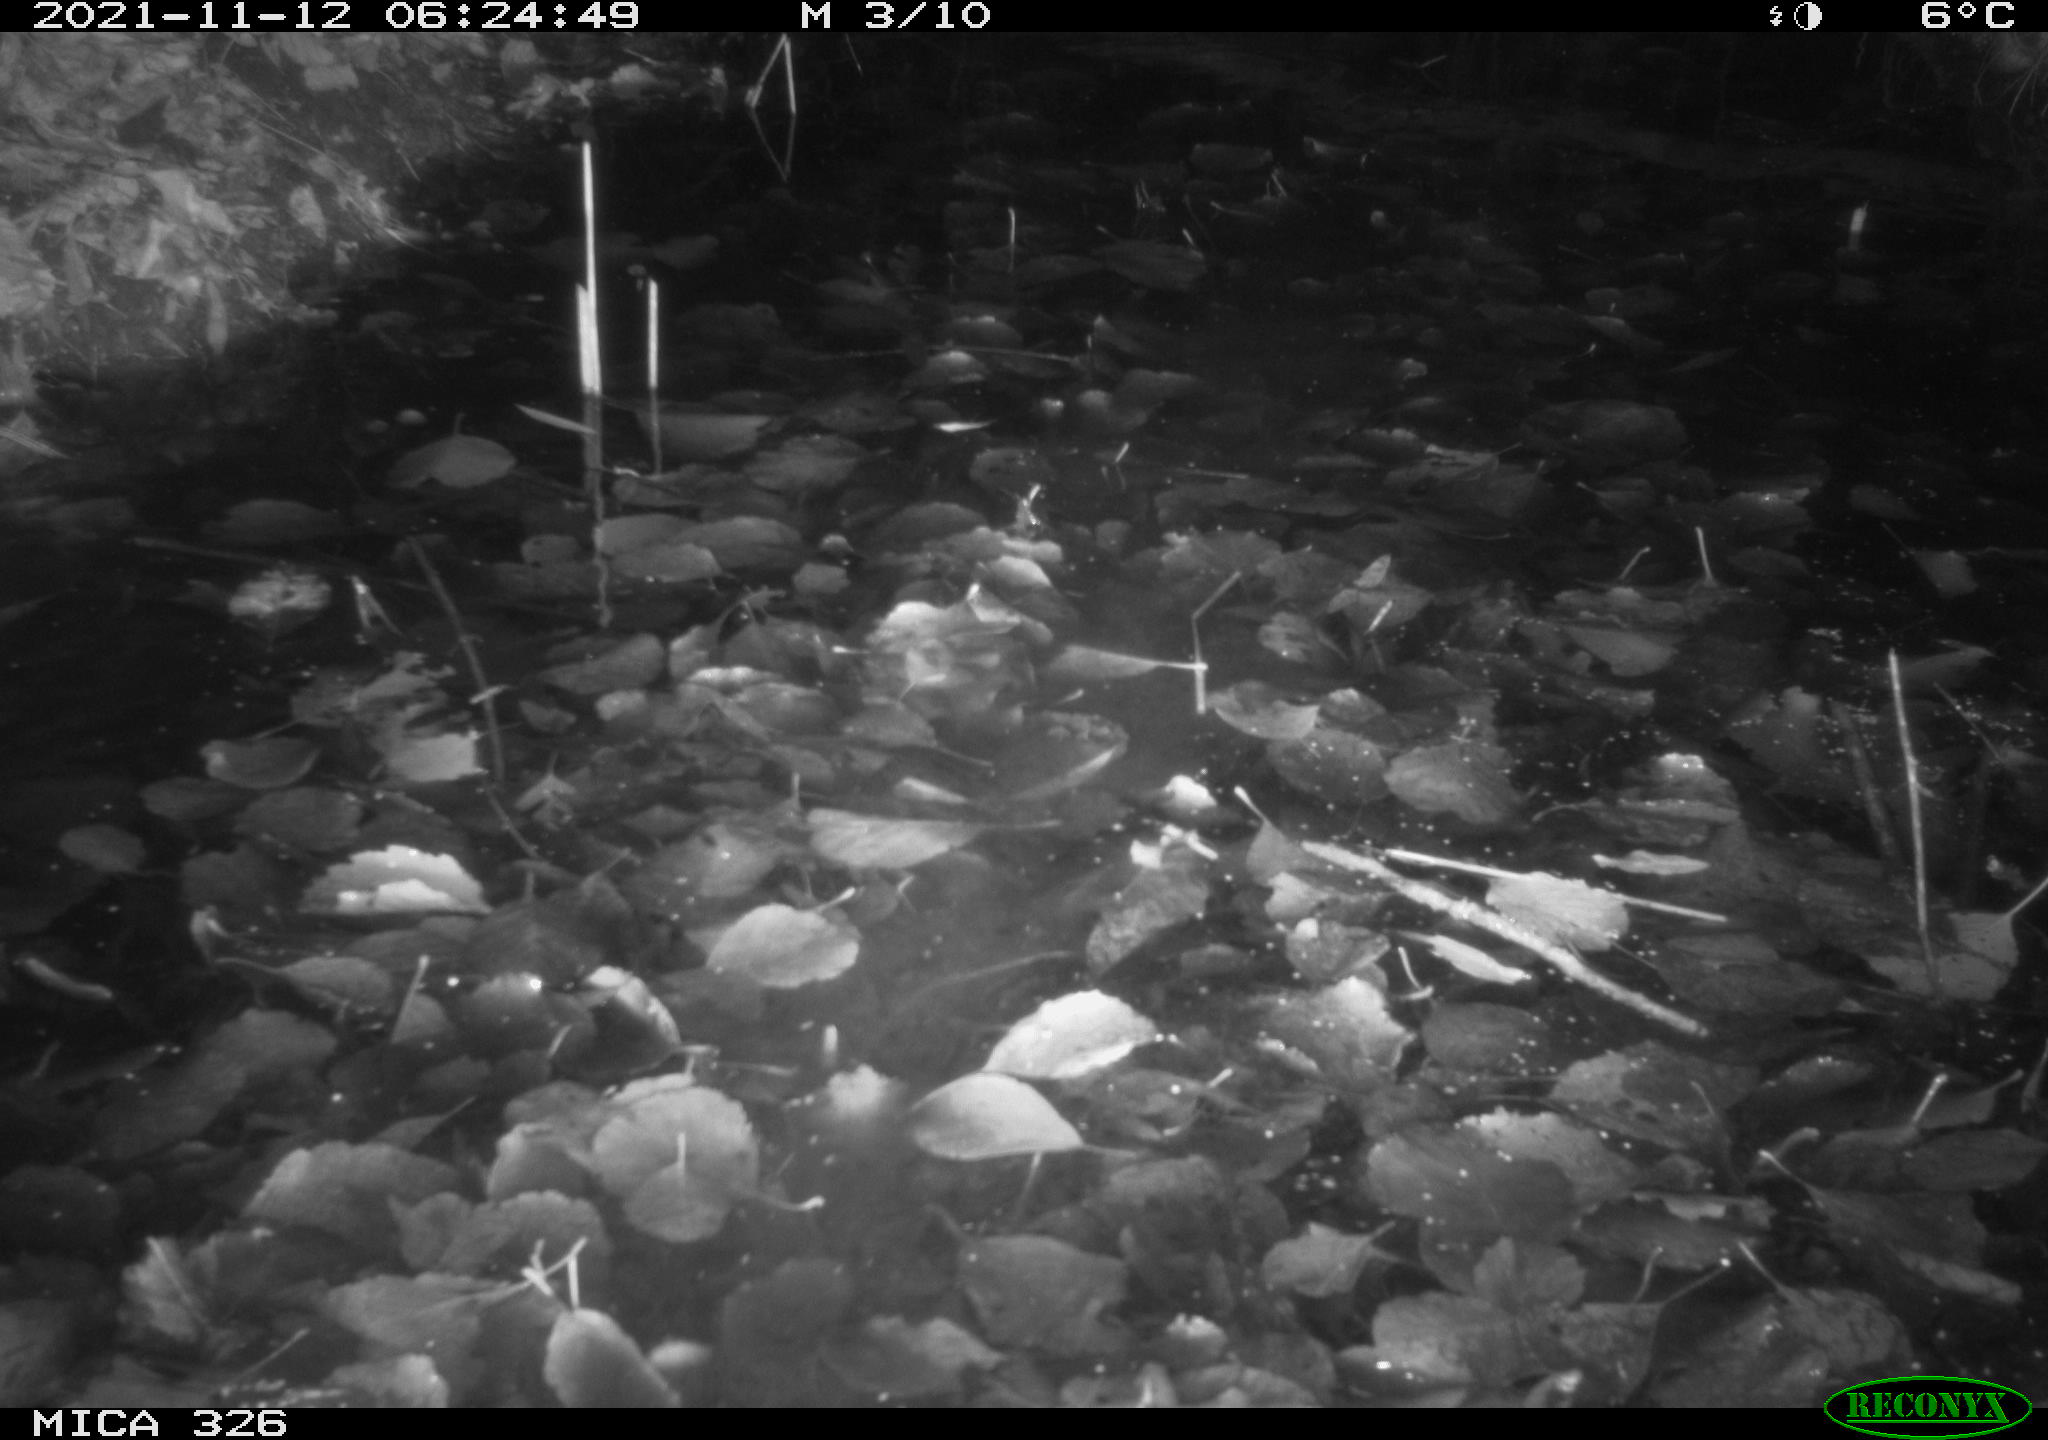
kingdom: Animalia
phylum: Chordata
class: Mammalia
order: Rodentia
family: Myocastoridae
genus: Myocastor
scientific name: Myocastor coypus
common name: Coypu
